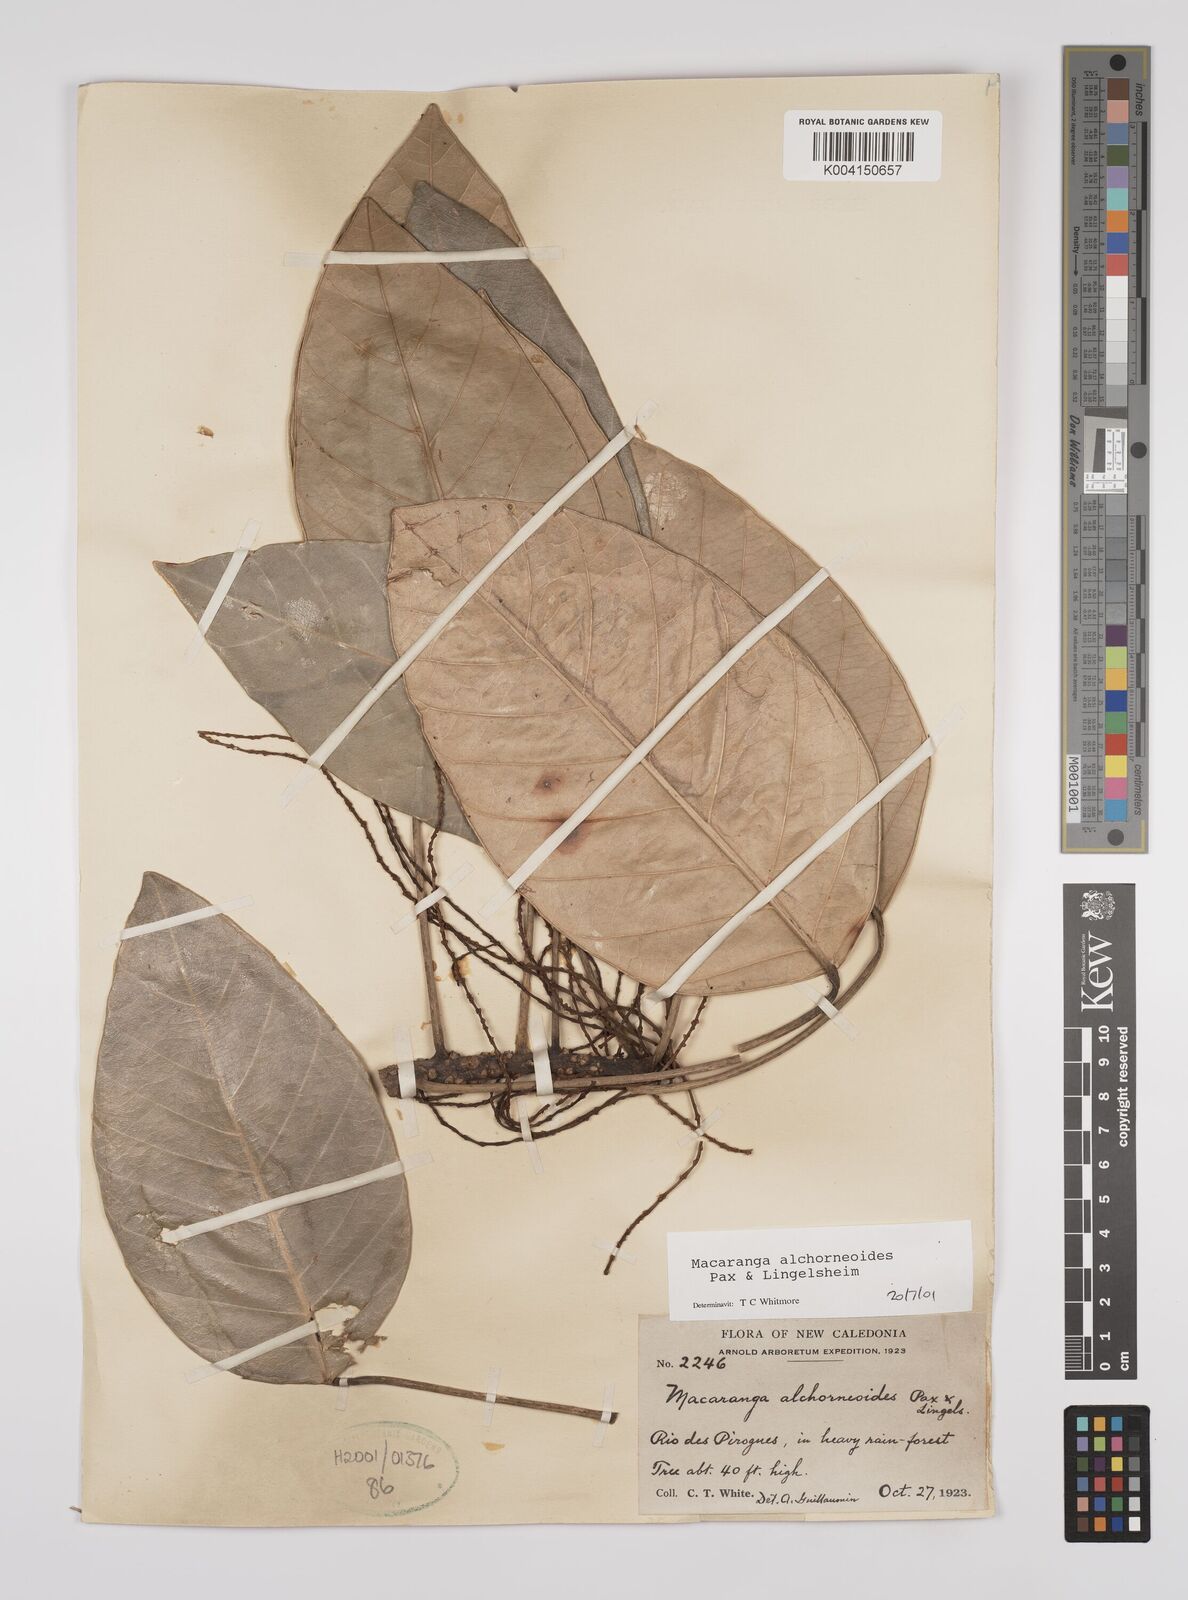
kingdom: Plantae
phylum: Tracheophyta
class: Magnoliopsida
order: Malpighiales
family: Euphorbiaceae
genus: Macaranga
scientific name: Macaranga alchorneoides
